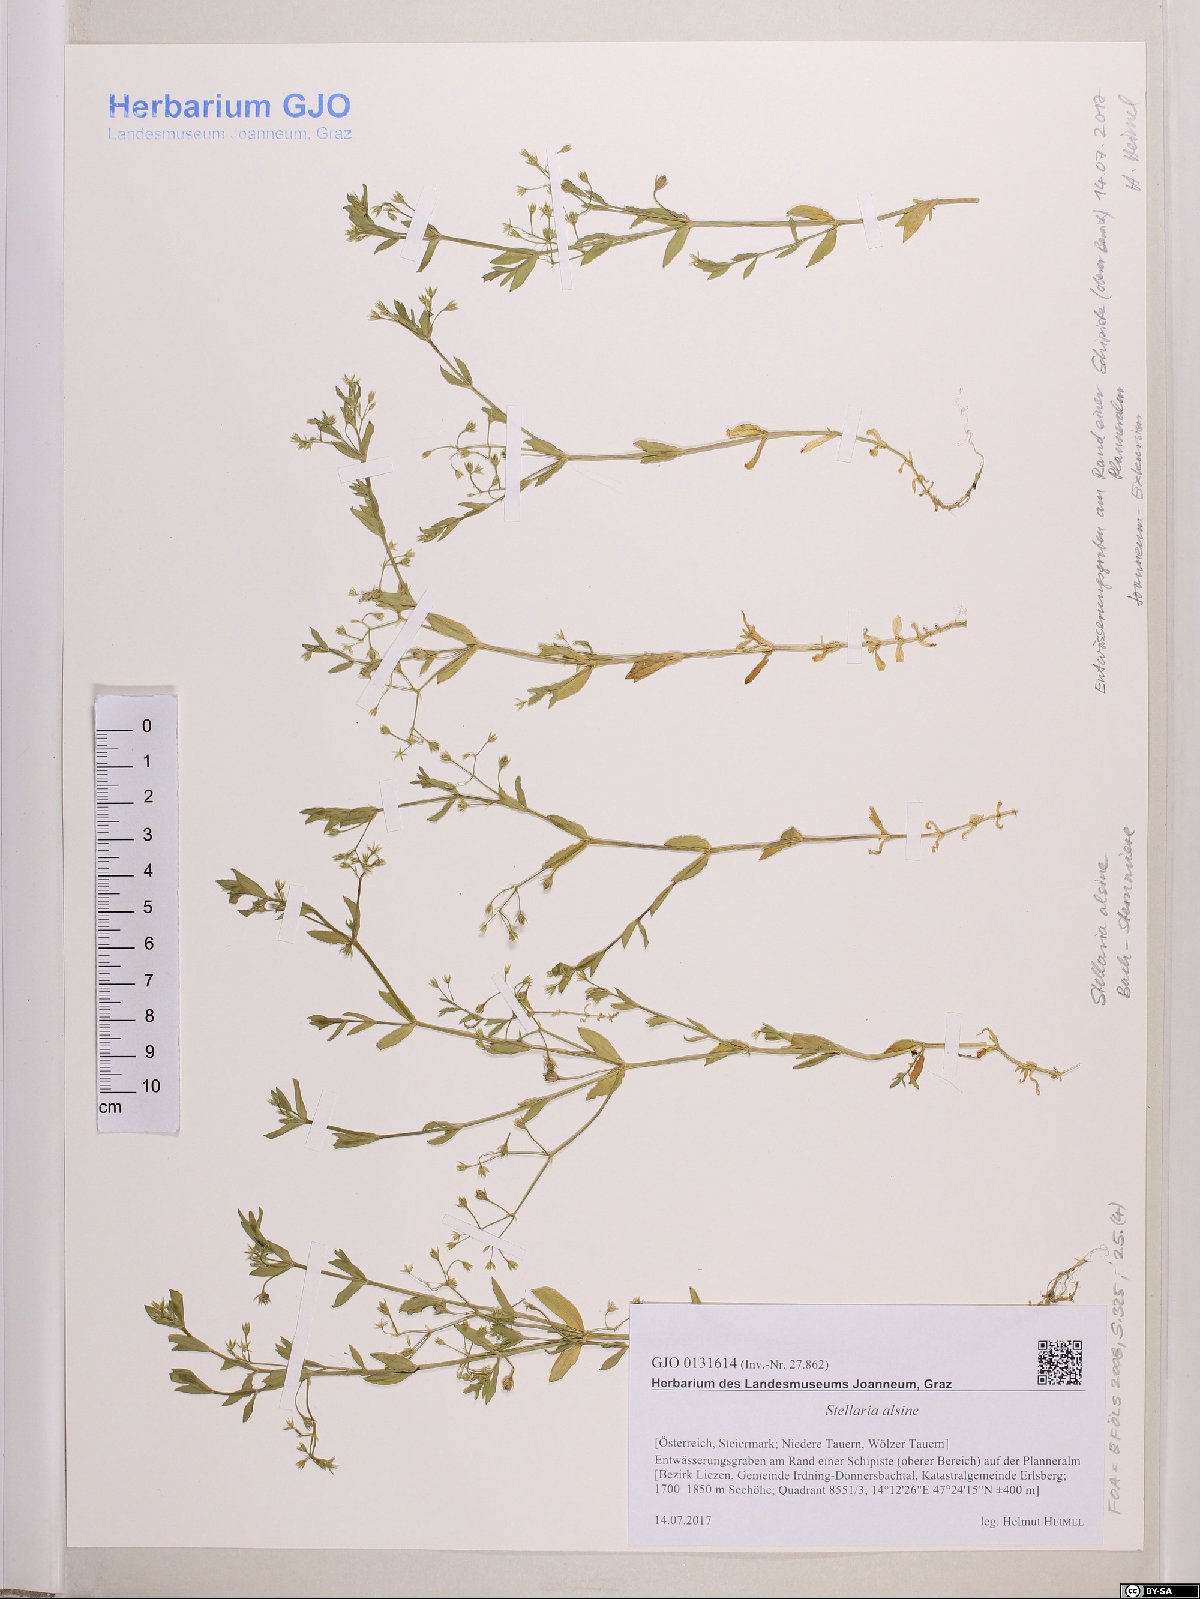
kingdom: Plantae
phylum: Tracheophyta
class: Magnoliopsida
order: Caryophyllales
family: Caryophyllaceae
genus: Stellaria
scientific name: Stellaria alsine
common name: Bog stitchwort
